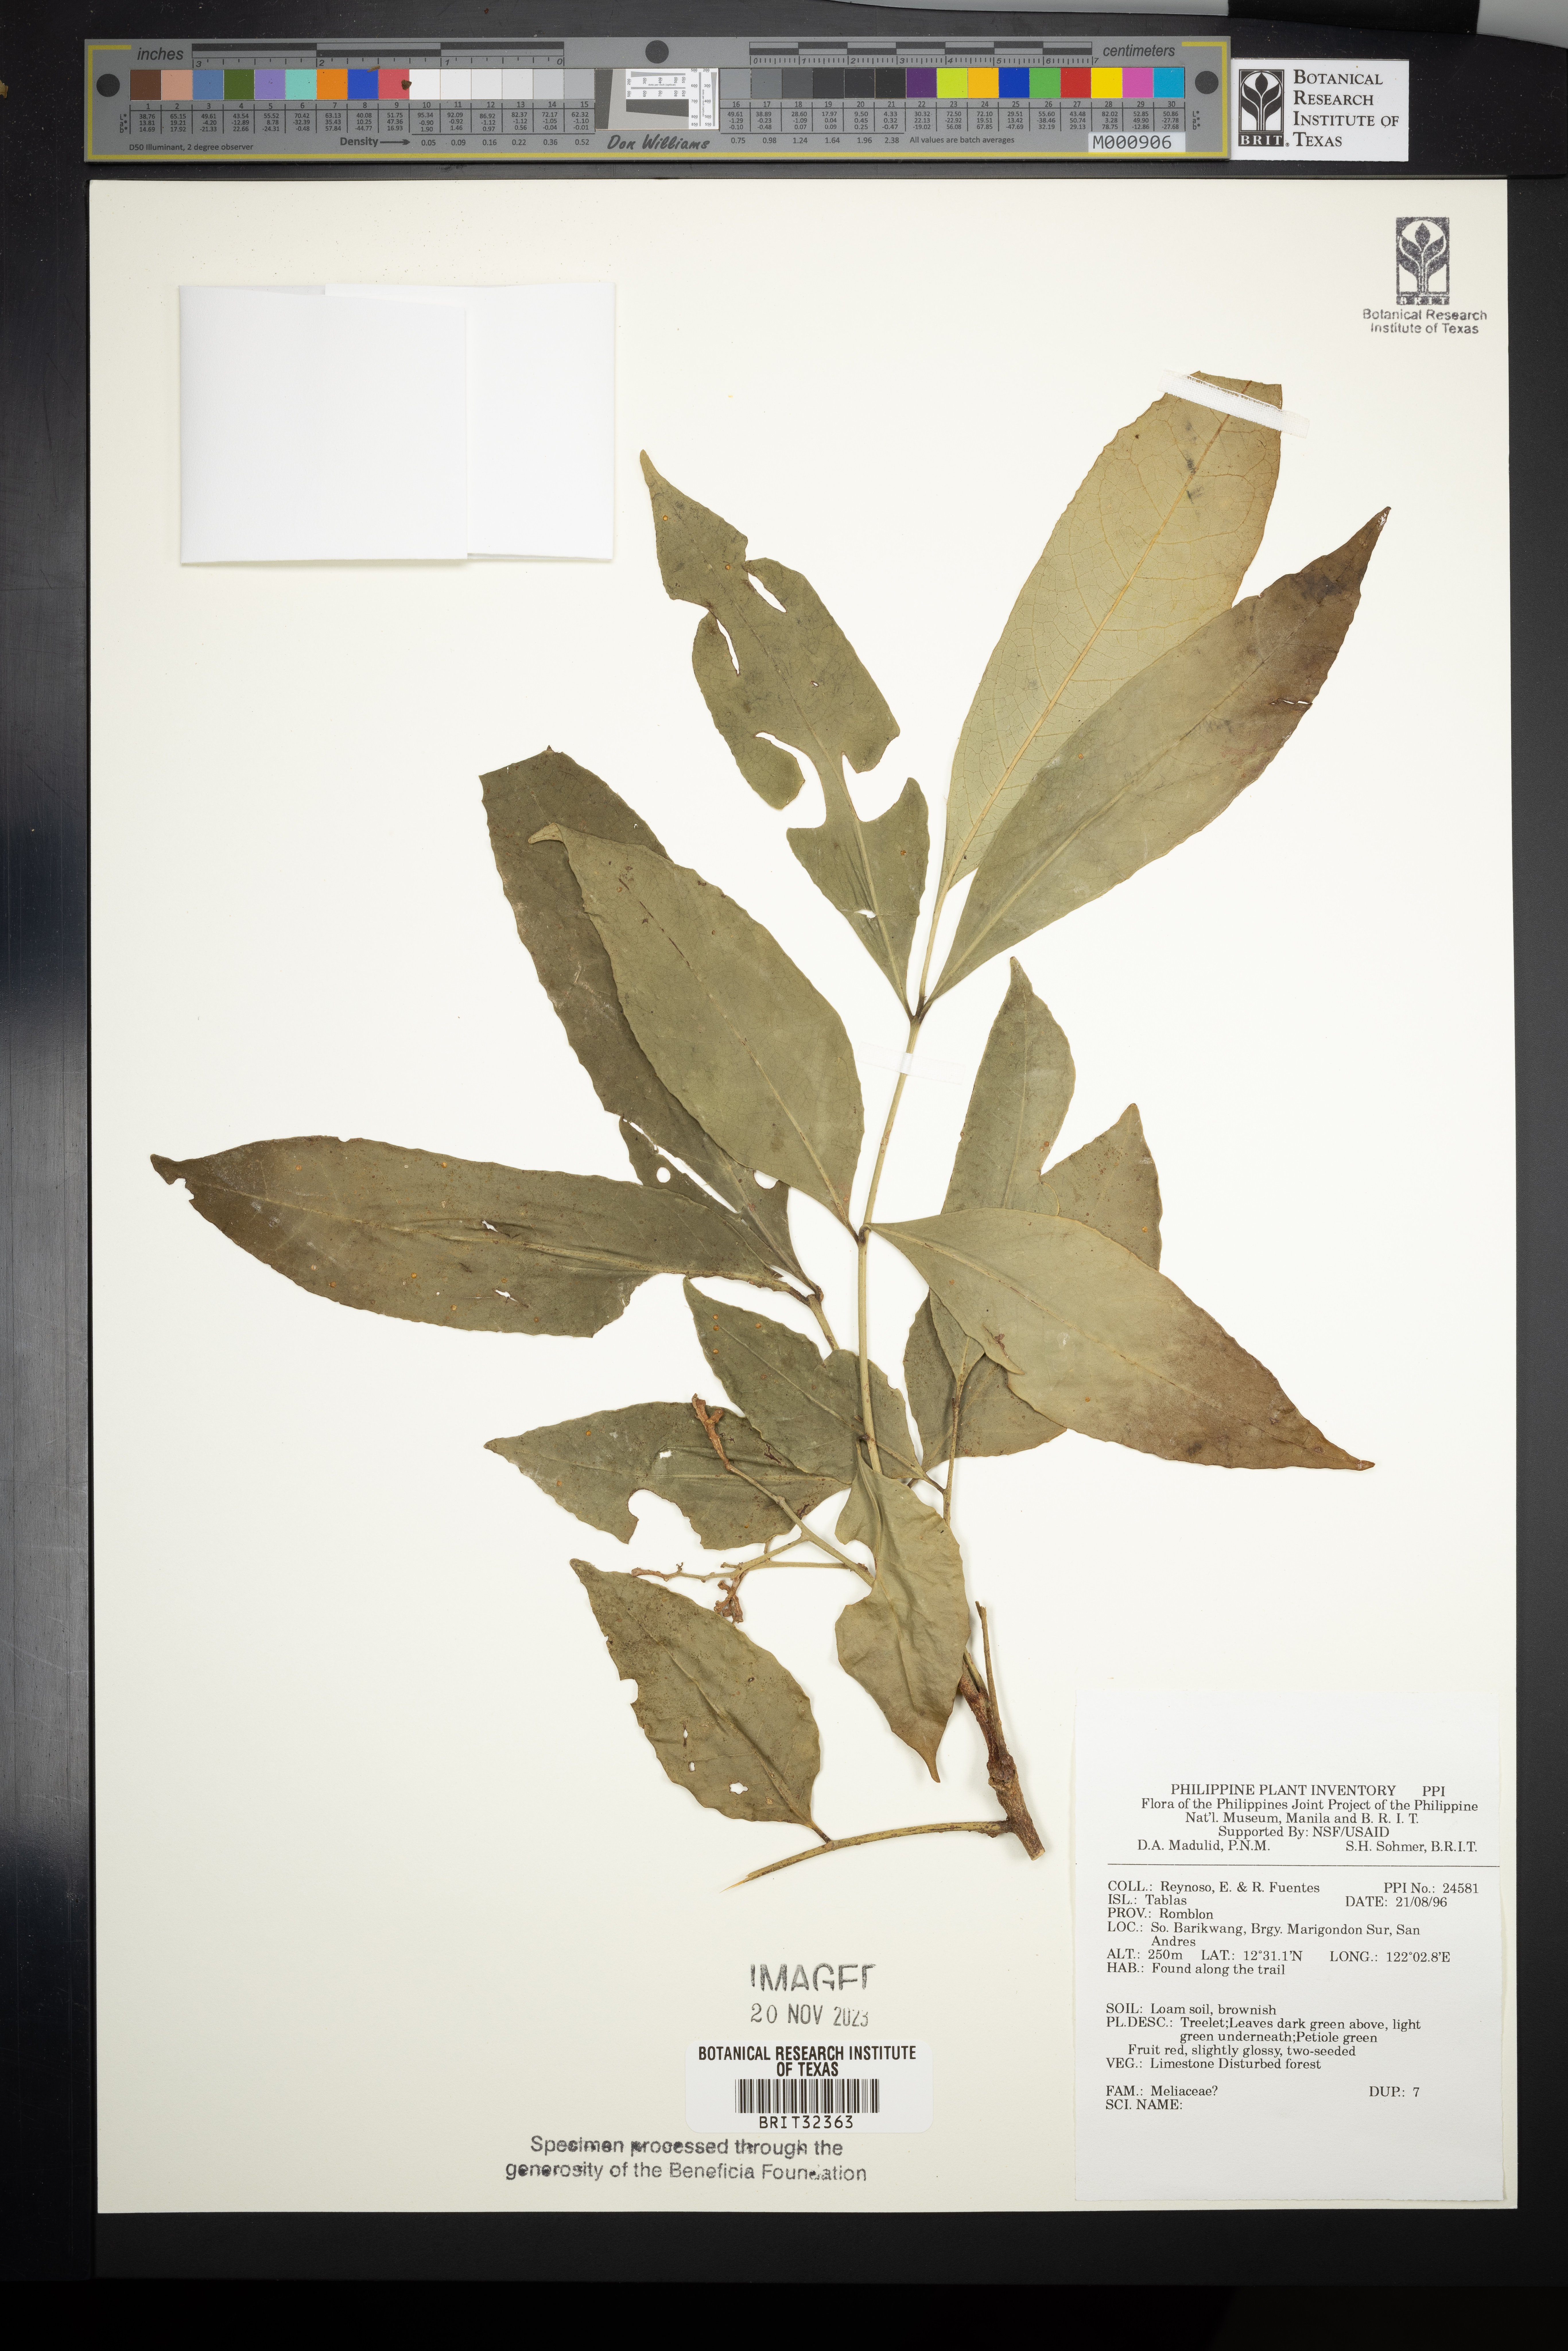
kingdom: Plantae
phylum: Tracheophyta
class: Magnoliopsida
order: Sapindales
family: Meliaceae
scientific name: Meliaceae
